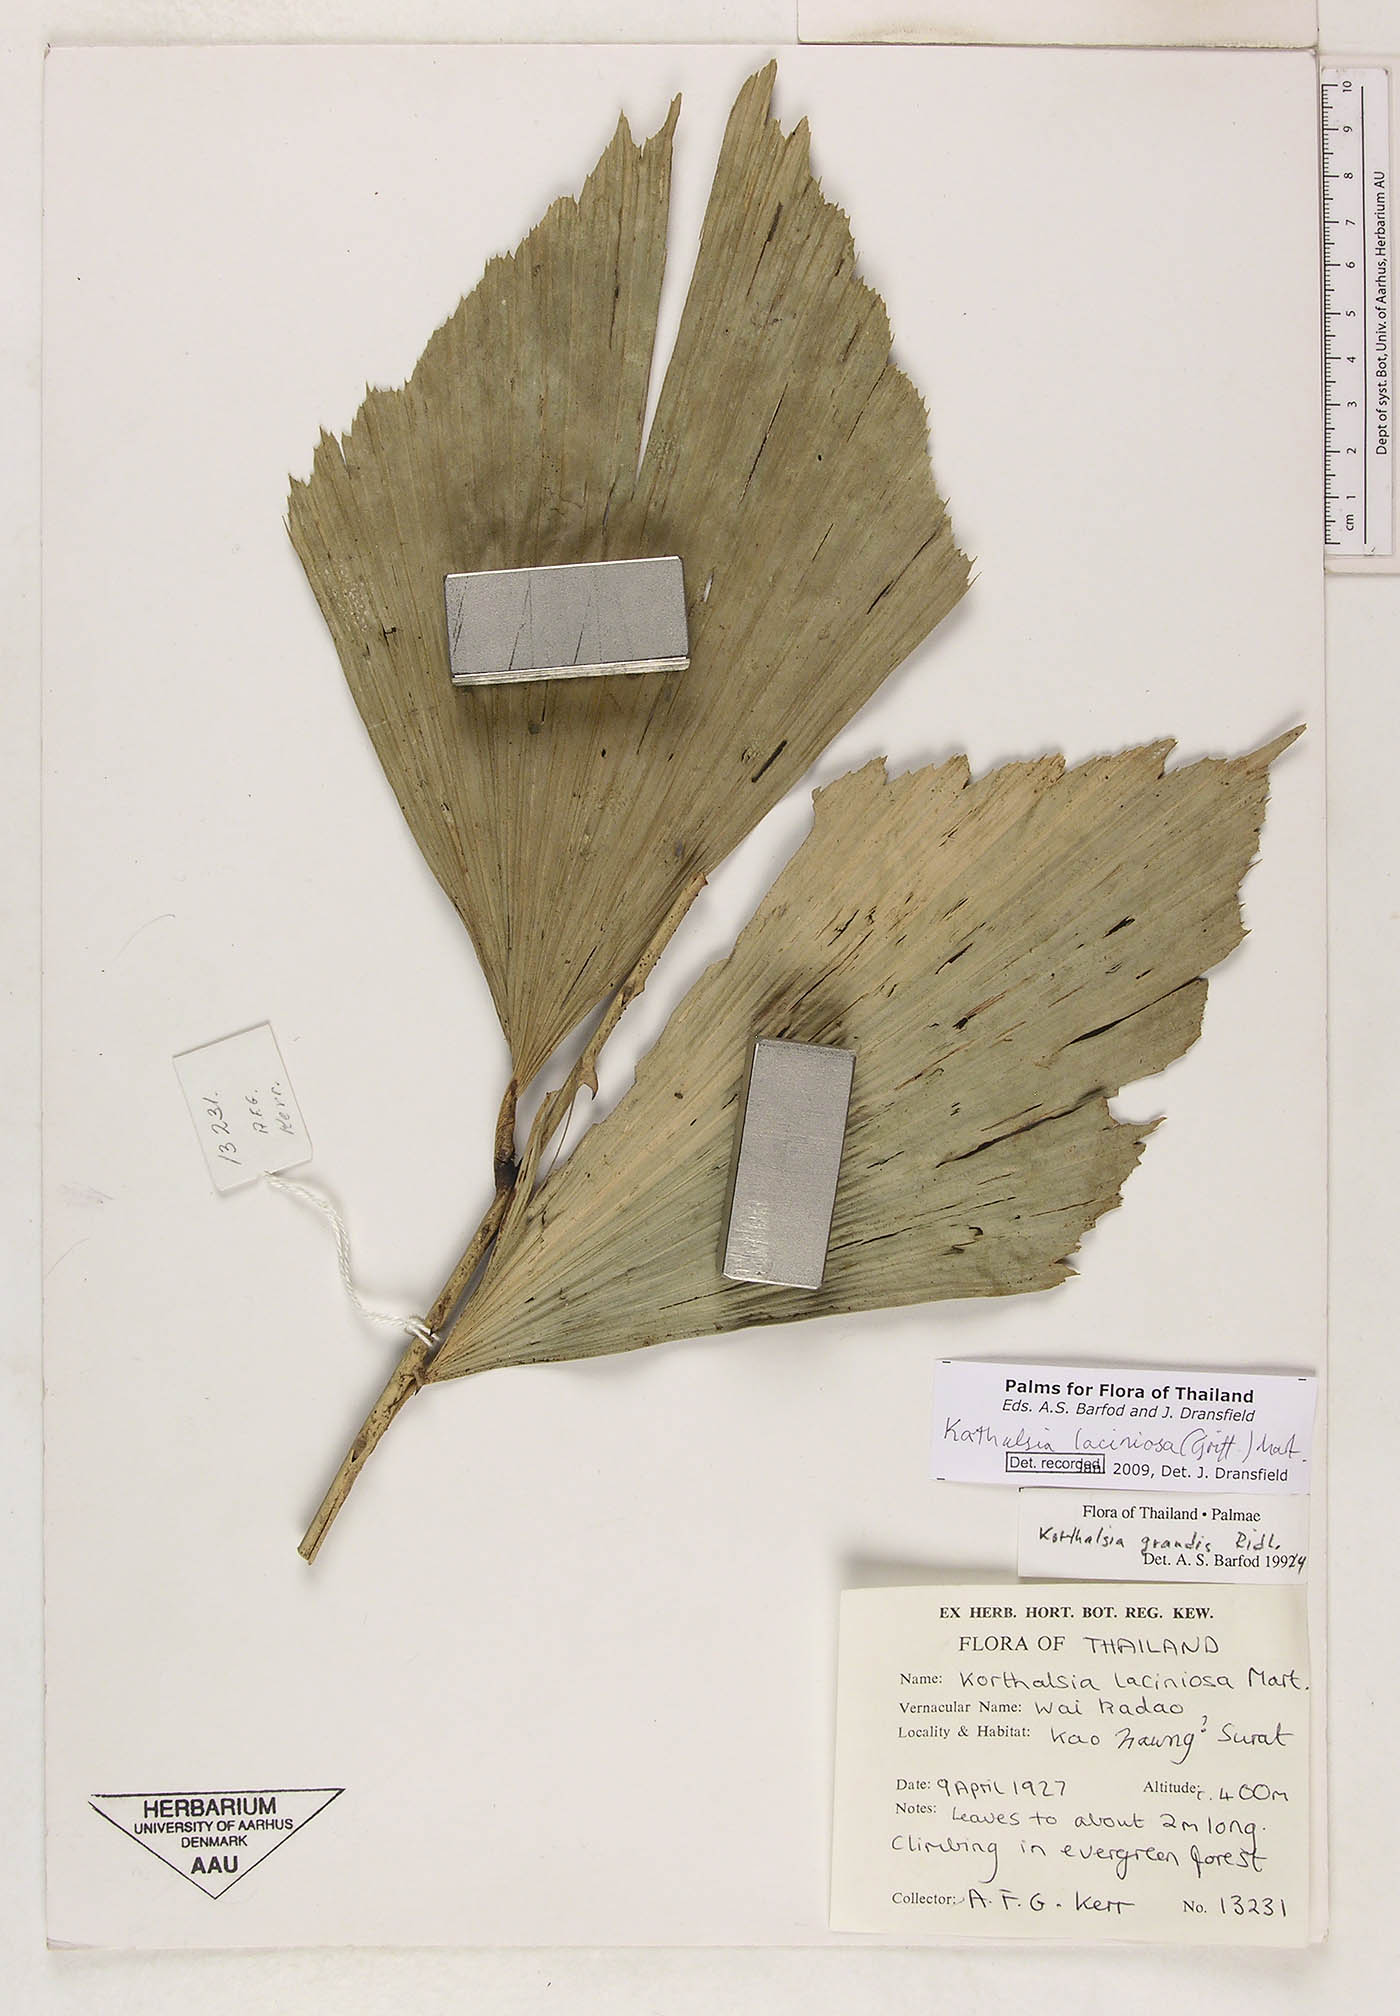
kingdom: Plantae
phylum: Tracheophyta
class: Liliopsida
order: Arecales
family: Arecaceae
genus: Korthalsia
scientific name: Korthalsia laciniosa
